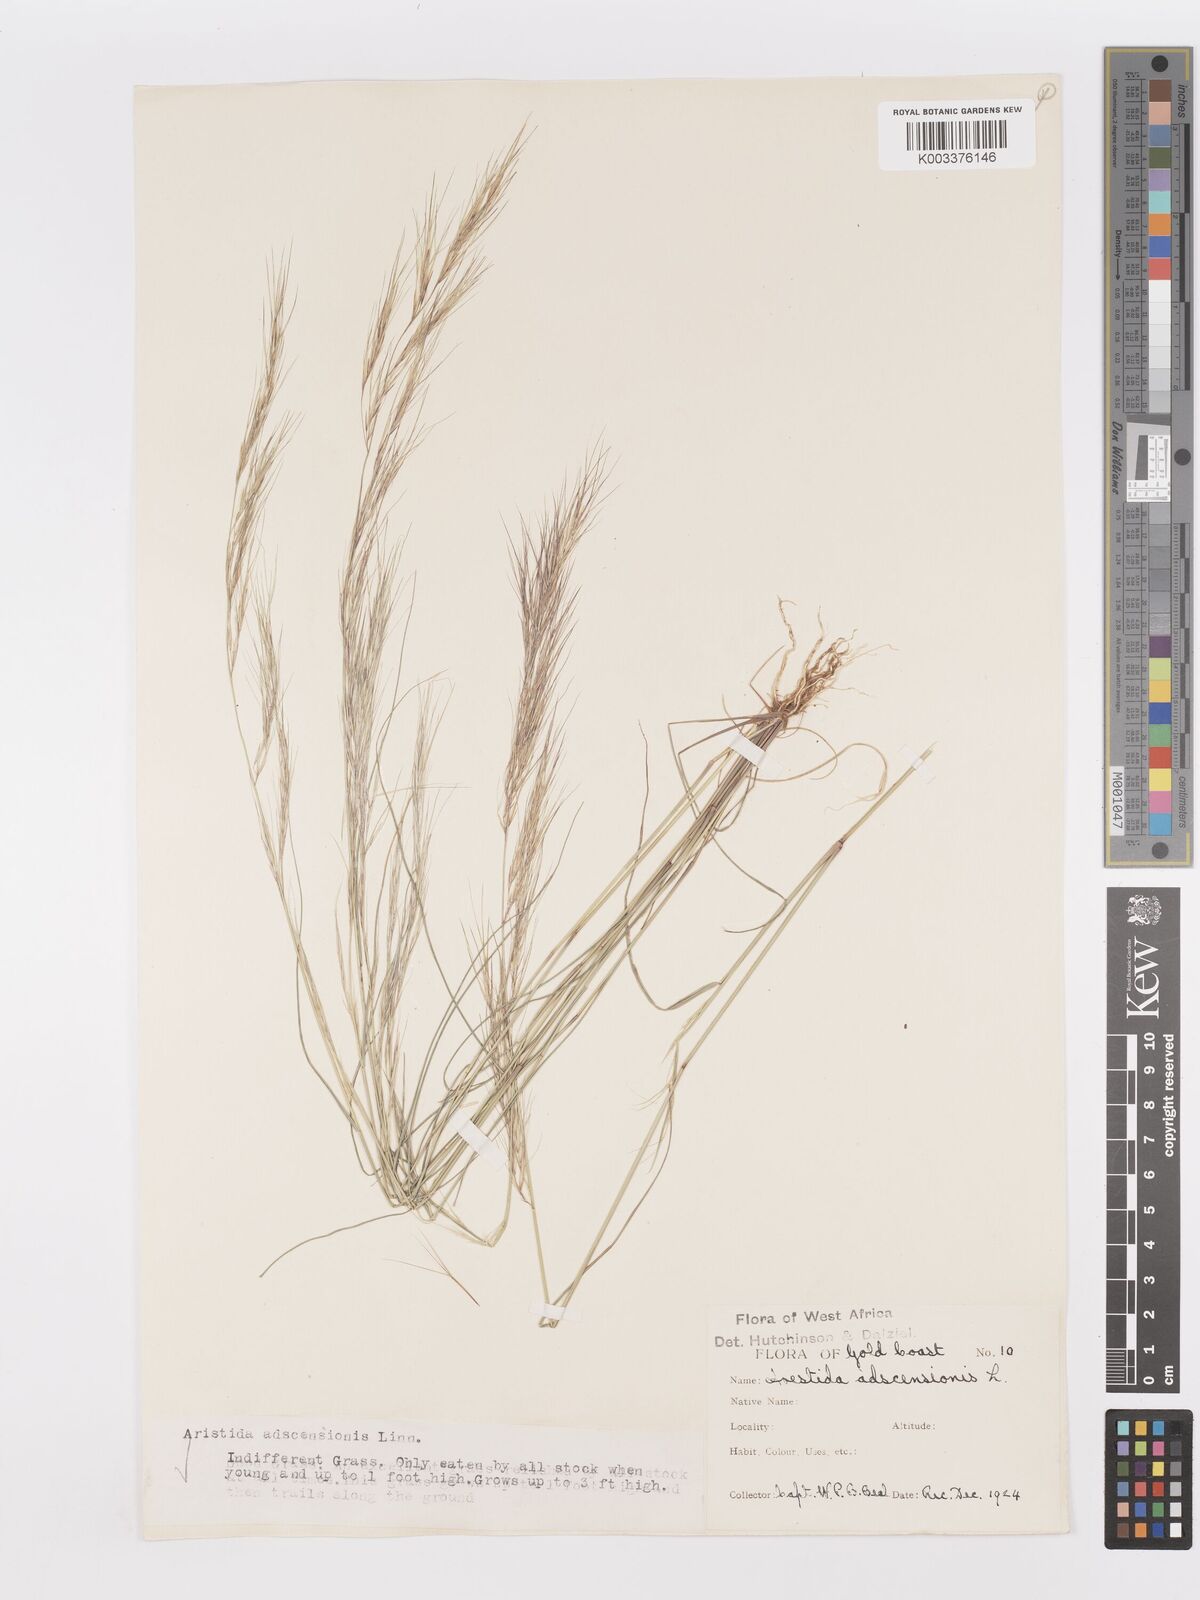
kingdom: Plantae
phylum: Tracheophyta
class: Liliopsida
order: Poales
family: Poaceae
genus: Aristida
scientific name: Aristida adscensionis
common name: Sixweeks threeawn
